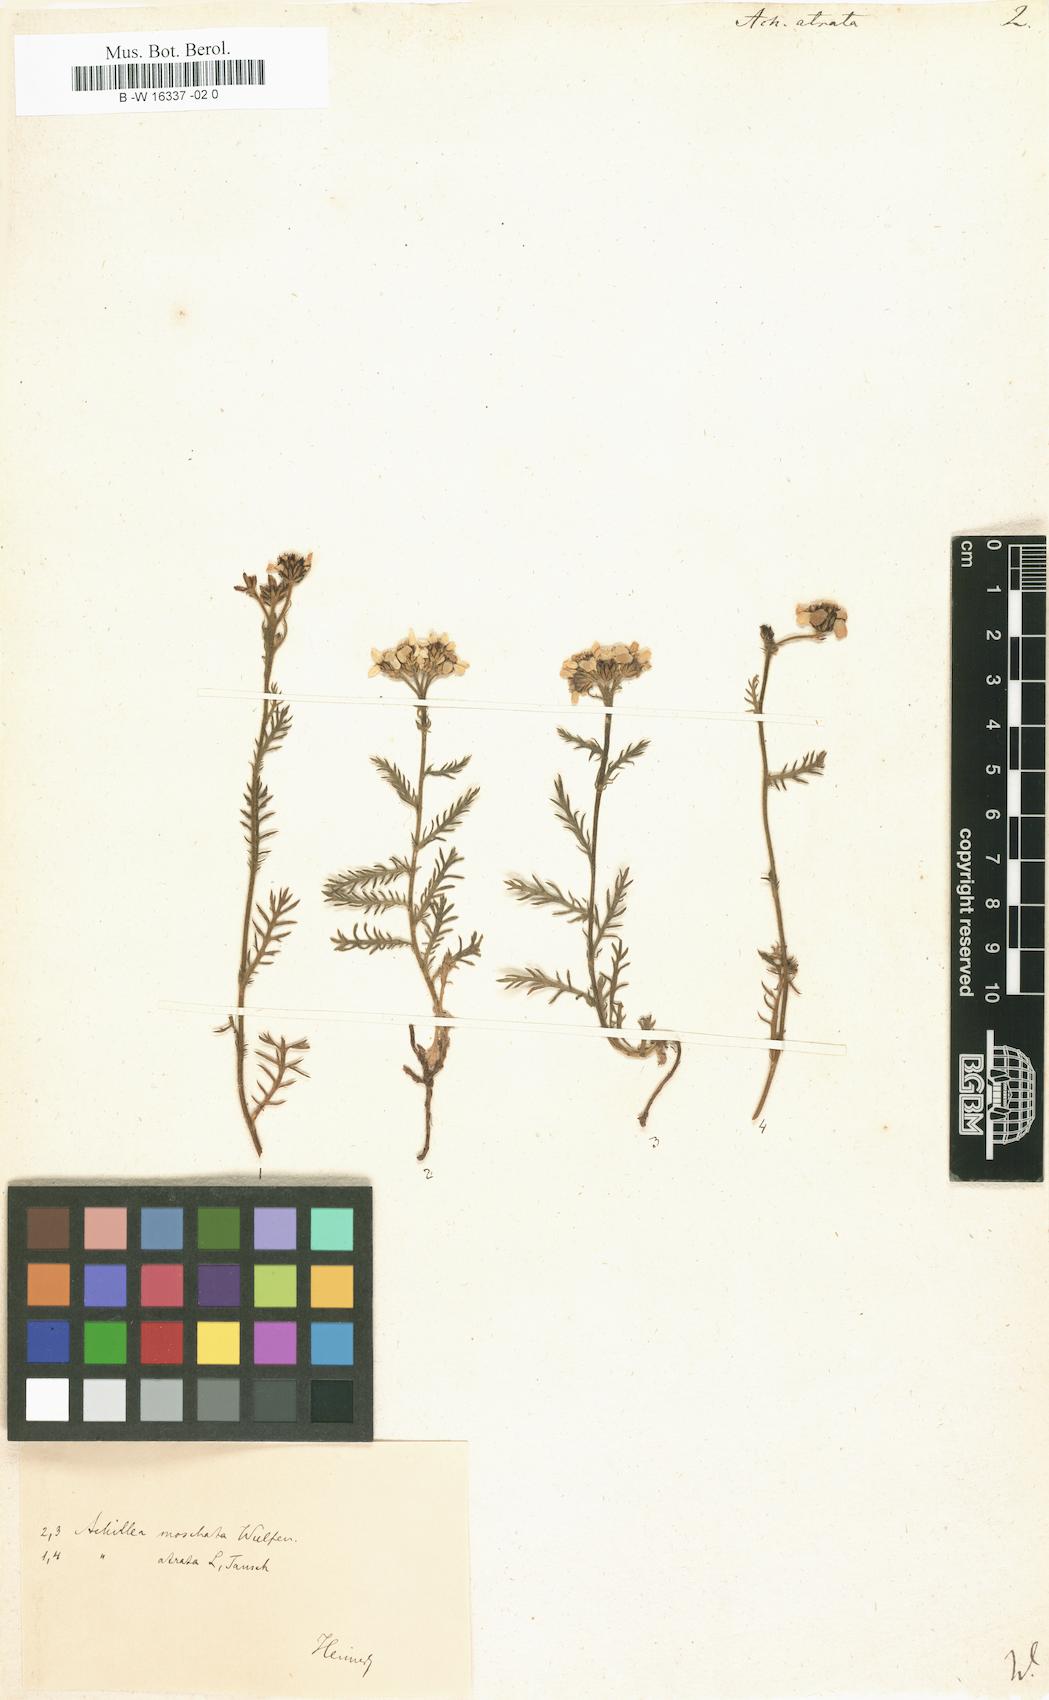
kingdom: Plantae
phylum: Tracheophyta
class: Magnoliopsida
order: Asterales
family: Asteraceae
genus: Achillea
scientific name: Achillea atrata
